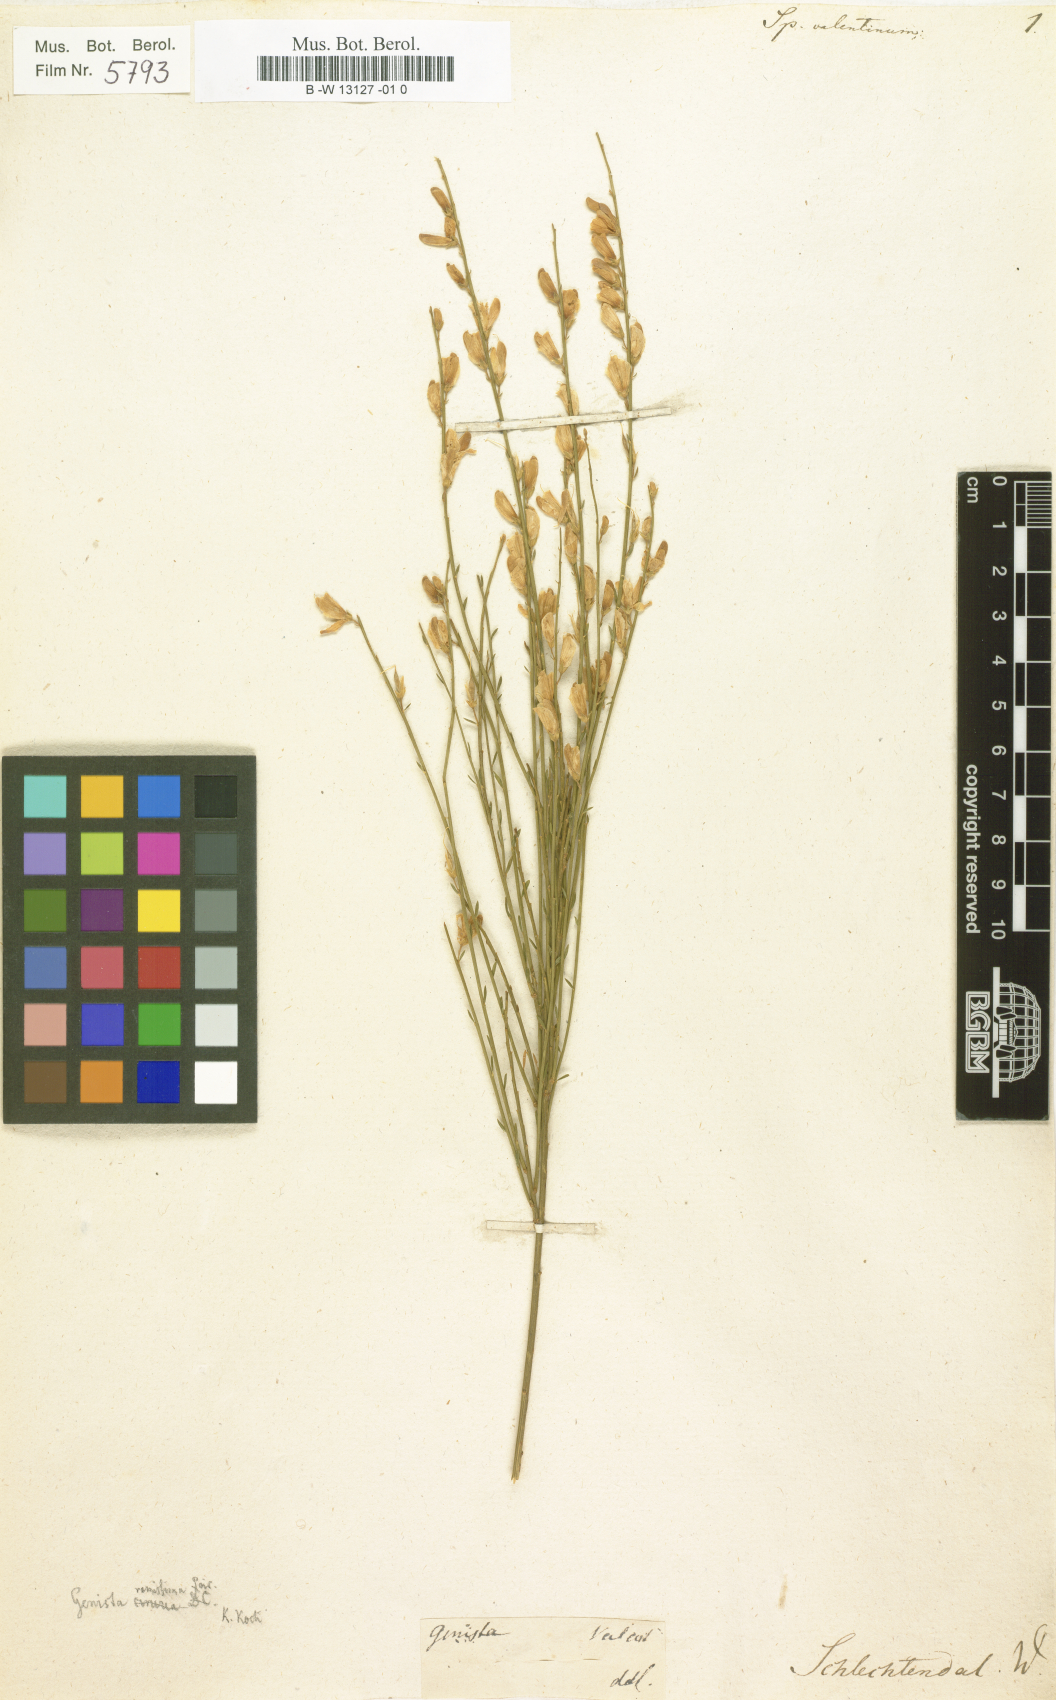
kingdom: Plantae
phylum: Tracheophyta
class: Magnoliopsida
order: Fabales
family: Fabaceae
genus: Genista
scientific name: Genista cinerea
